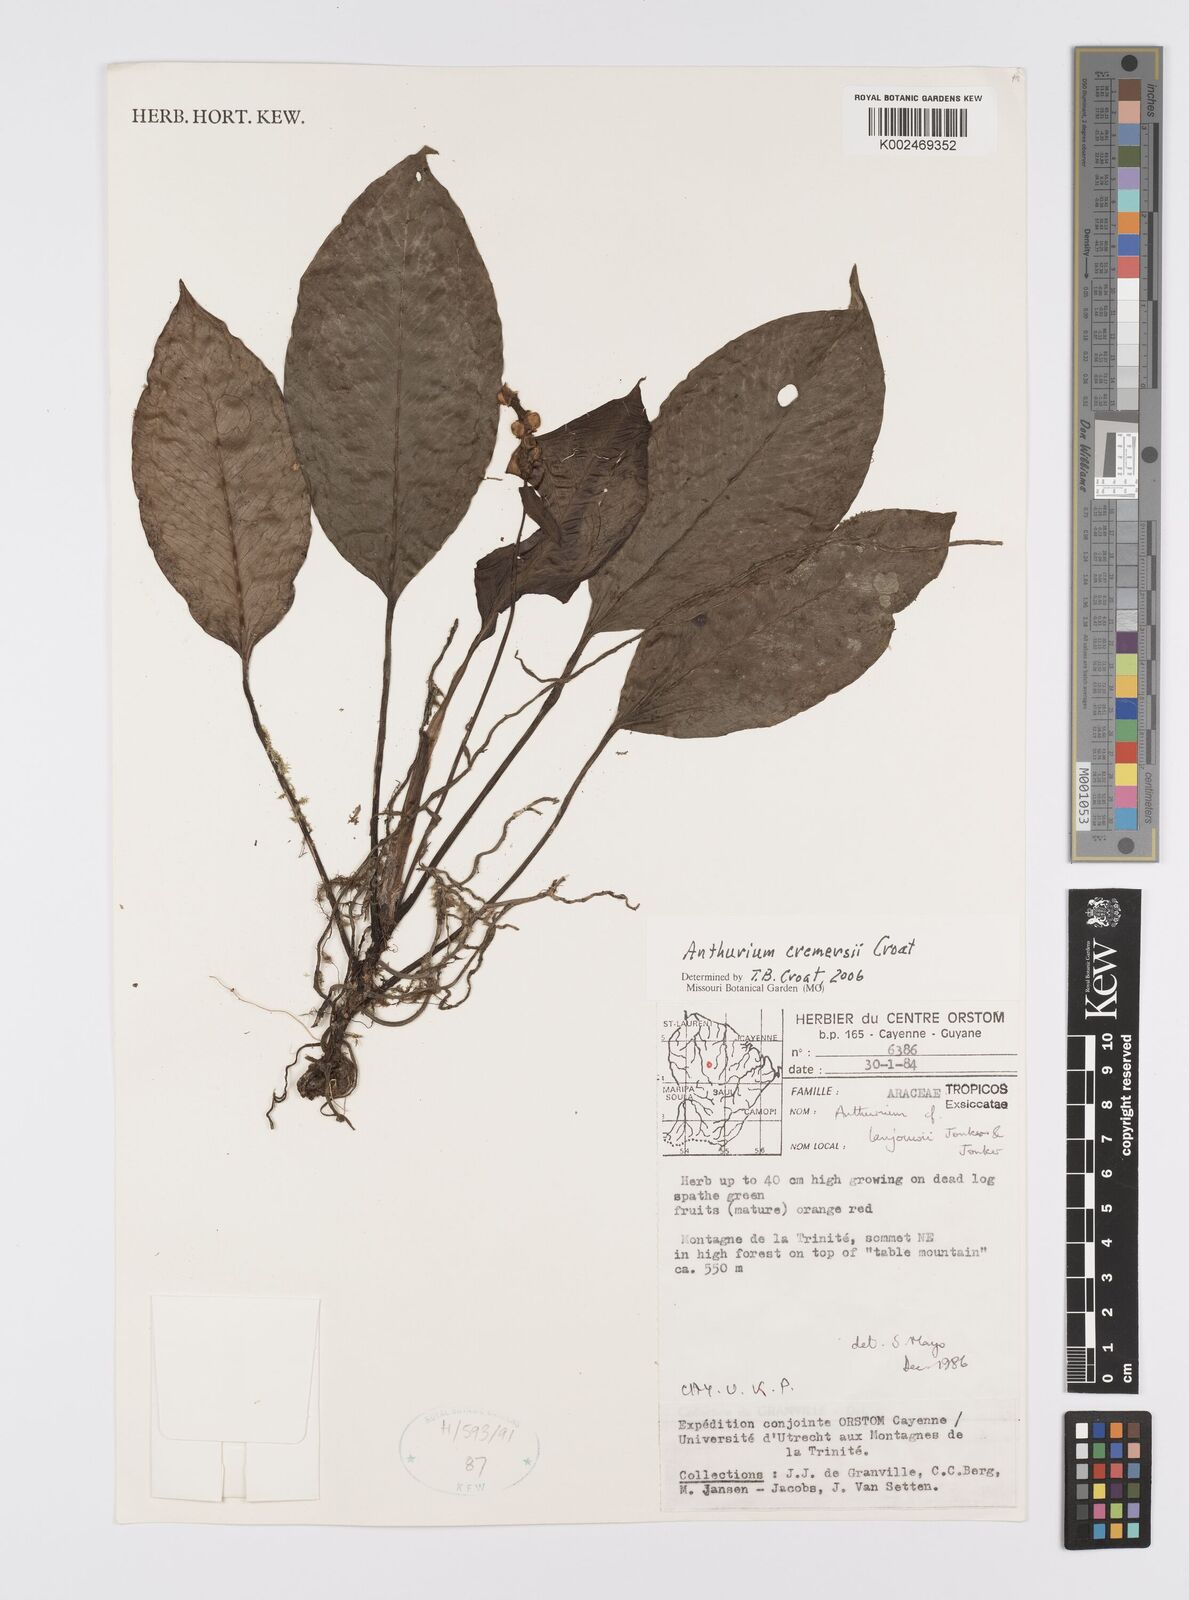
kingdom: Plantae
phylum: Tracheophyta
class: Liliopsida
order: Alismatales
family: Araceae
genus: Anthurium
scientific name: Anthurium cremersii
